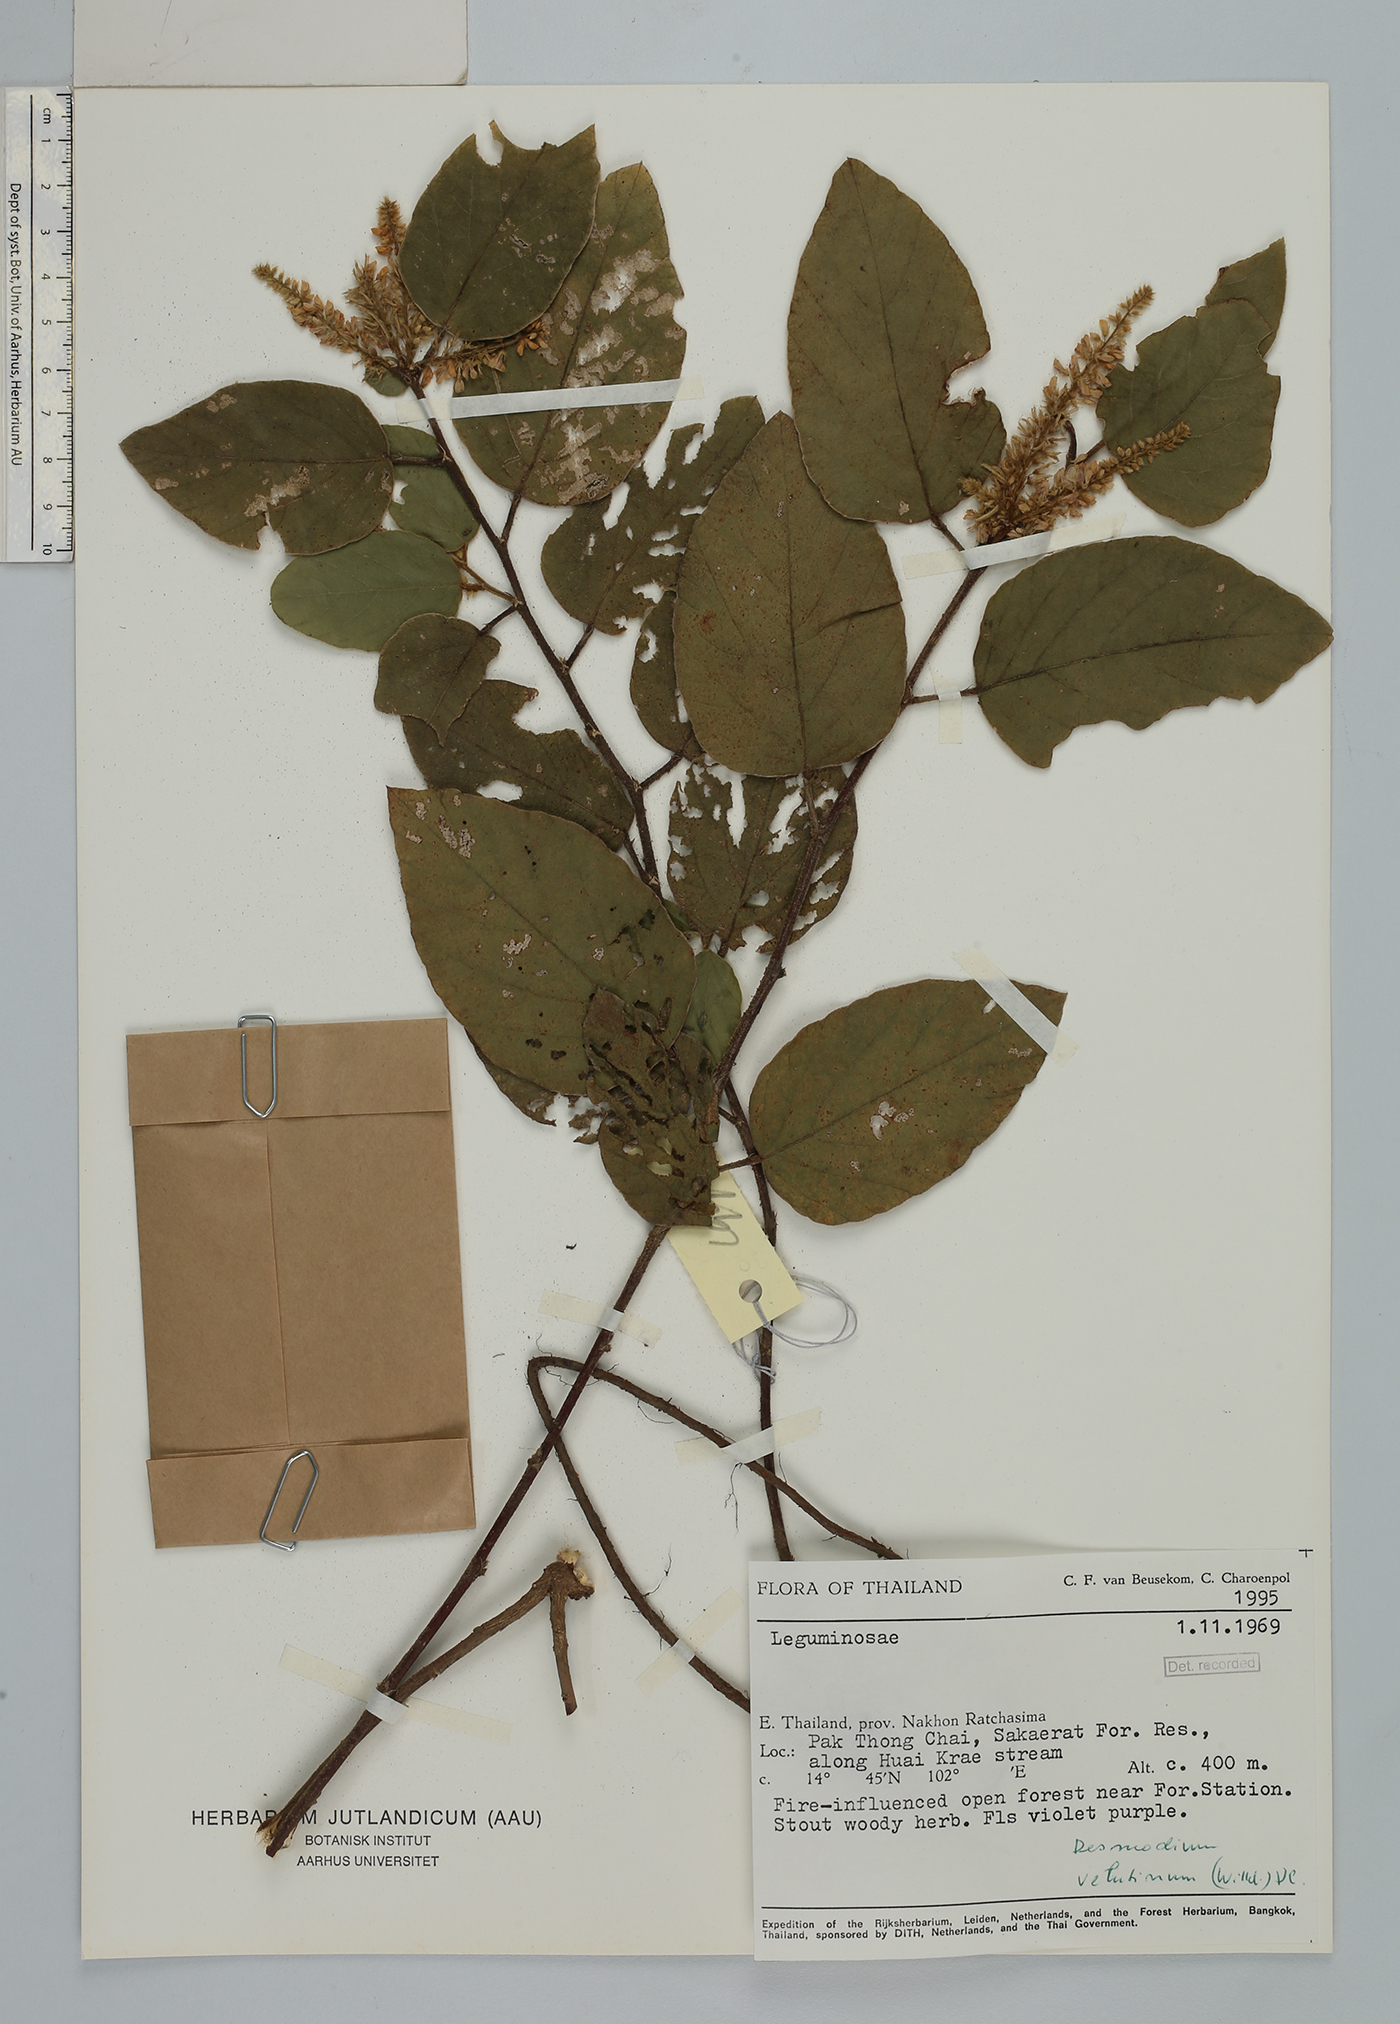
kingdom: Plantae
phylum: Tracheophyta
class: Magnoliopsida
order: Fabales
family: Fabaceae
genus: Polhillides
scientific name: Polhillides velutina
